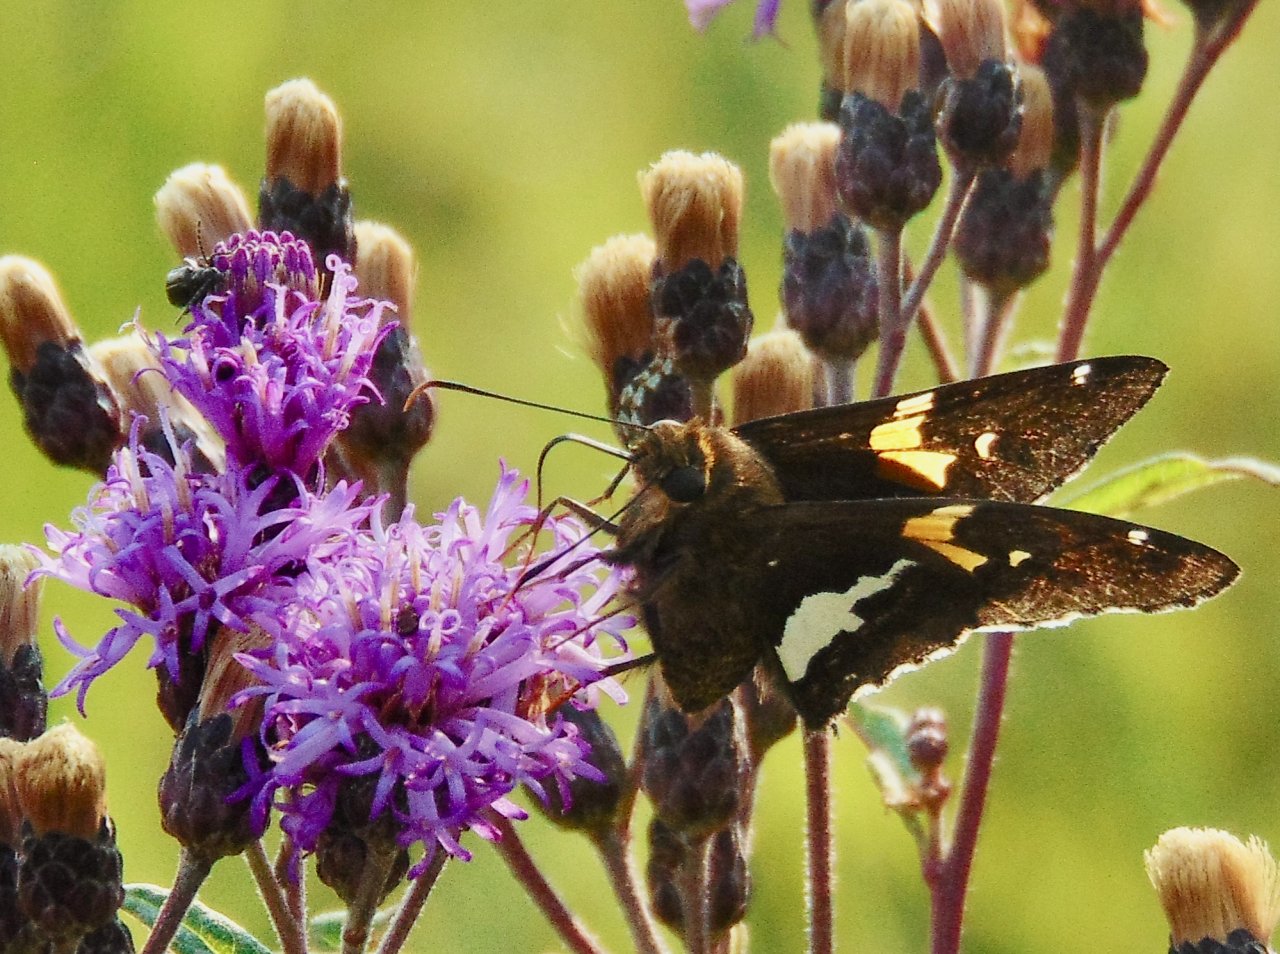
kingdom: Animalia
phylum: Arthropoda
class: Insecta
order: Lepidoptera
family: Hesperiidae
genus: Epargyreus
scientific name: Epargyreus clarus
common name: Silver-spotted Skipper
